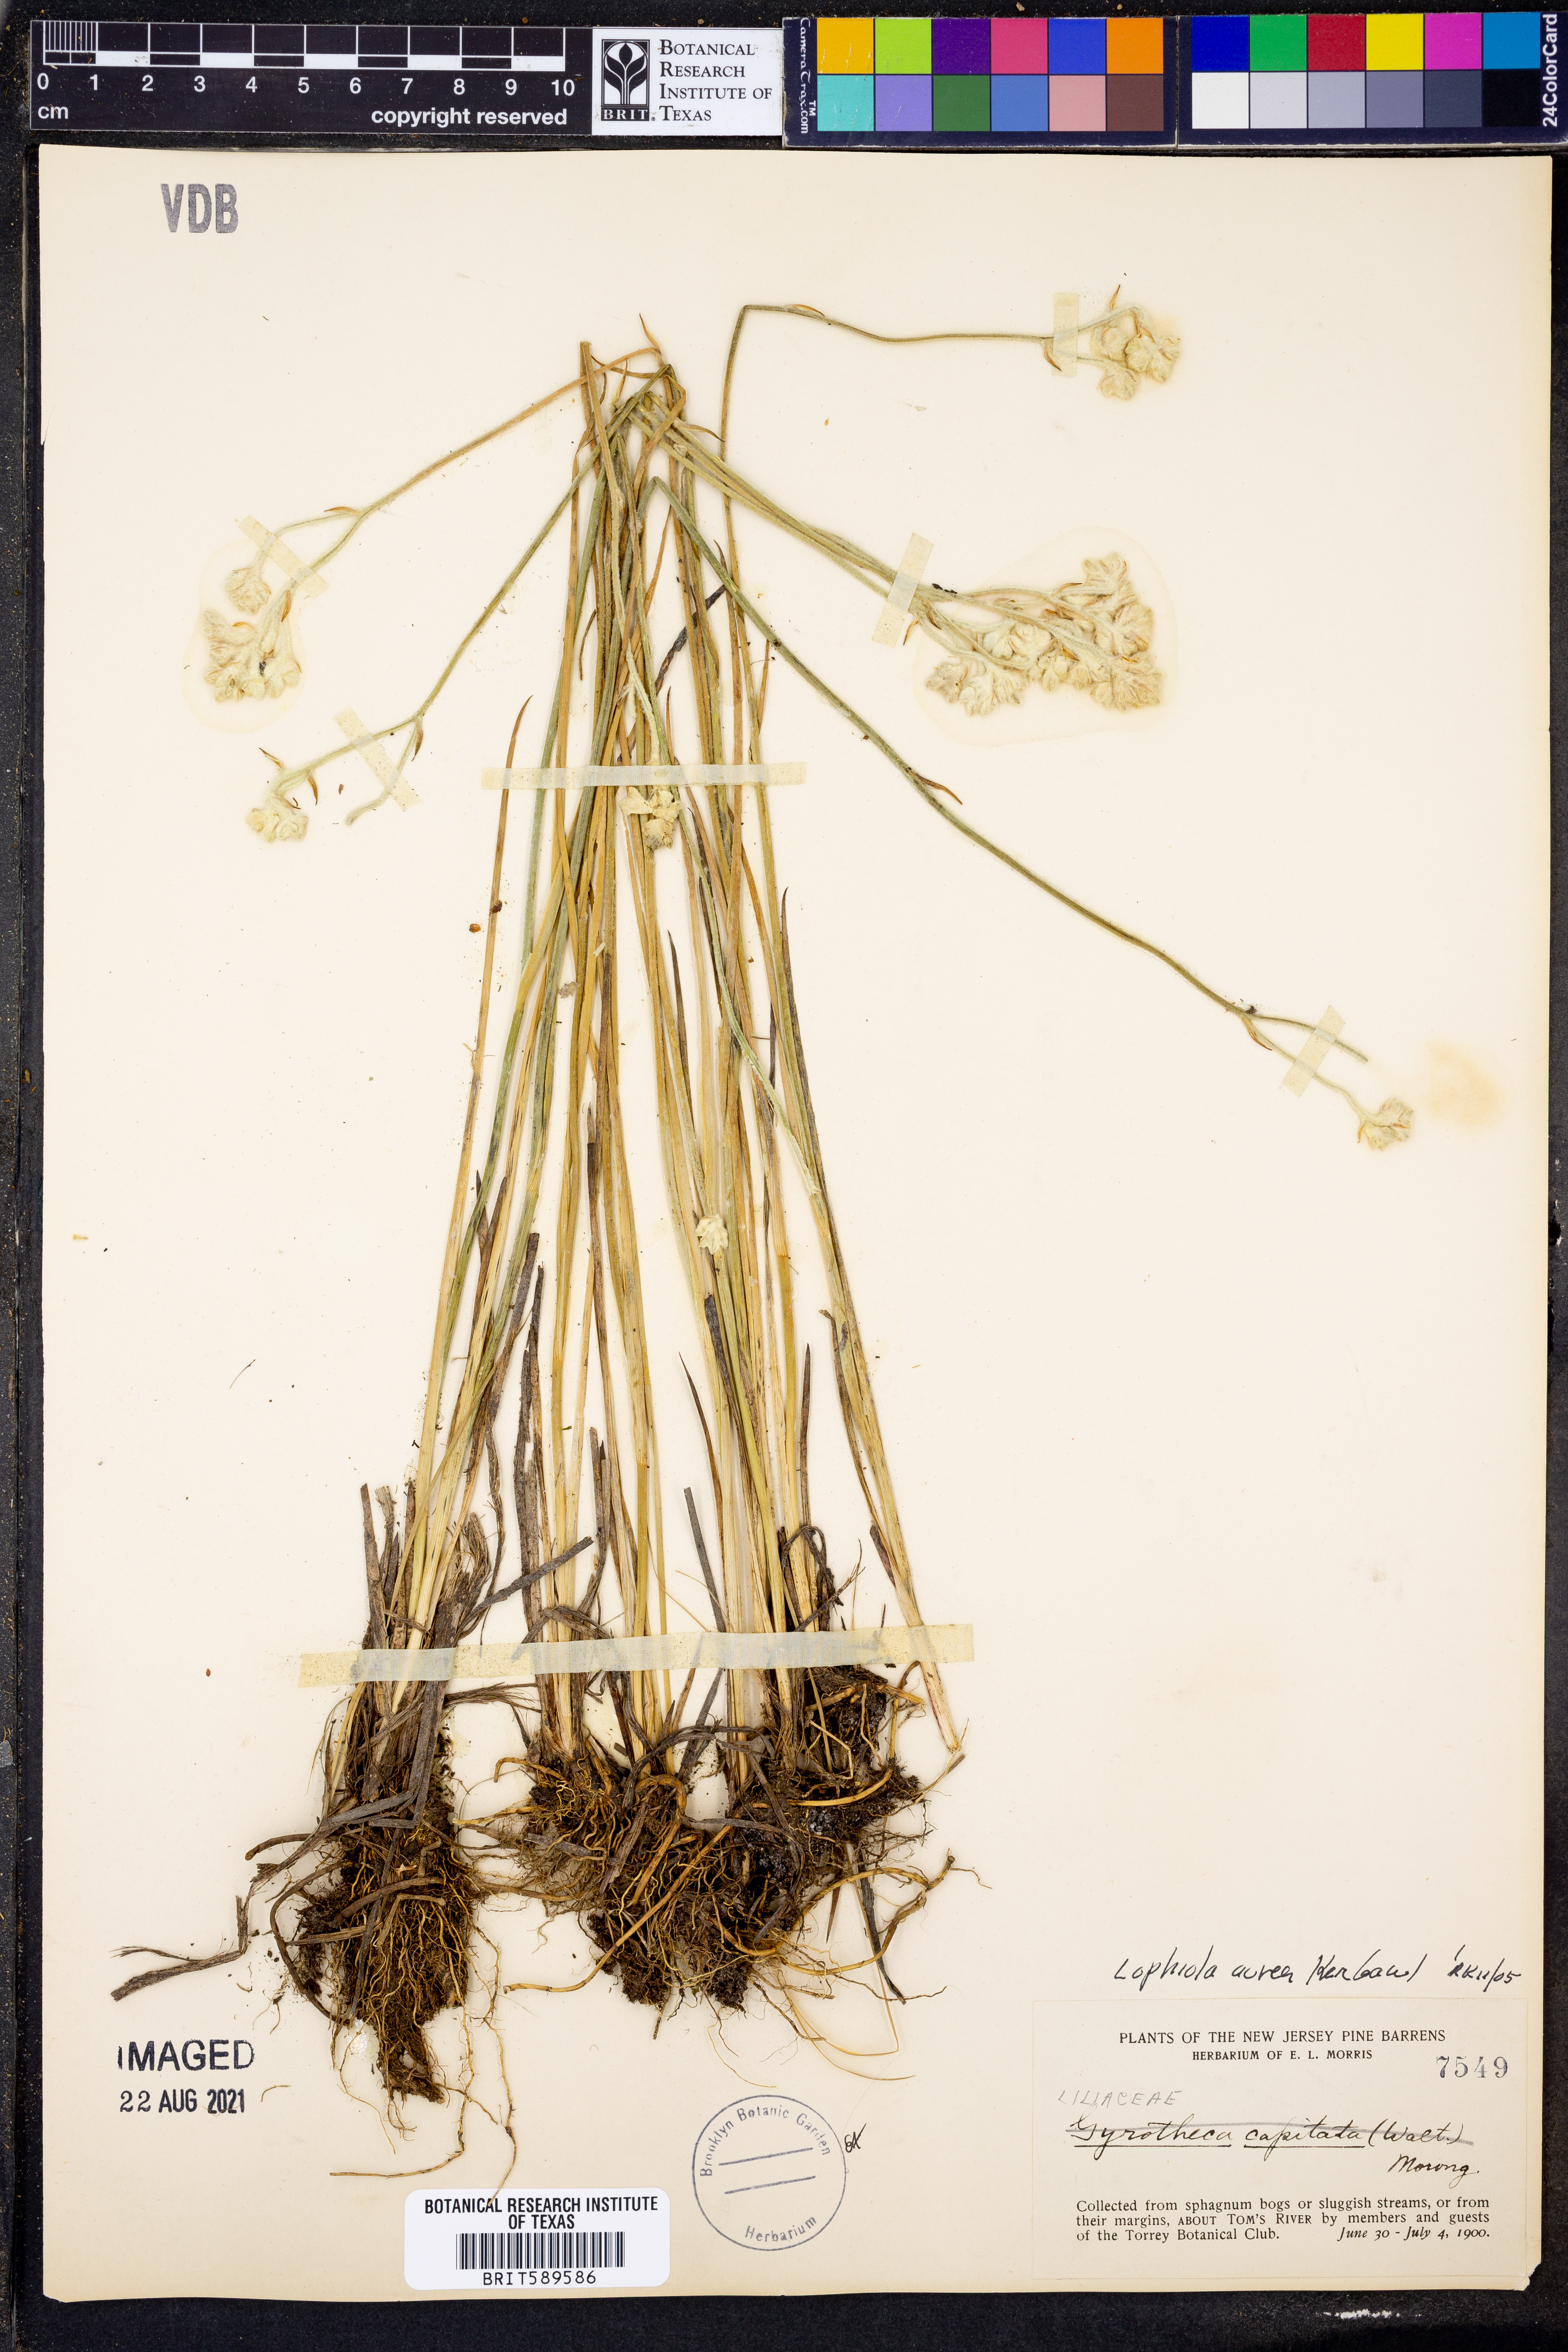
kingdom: Plantae
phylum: Tracheophyta
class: Liliopsida
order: Dioscoreales
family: Nartheciaceae
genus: Lophiola
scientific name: Lophiola aurea
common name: Golden-crest
